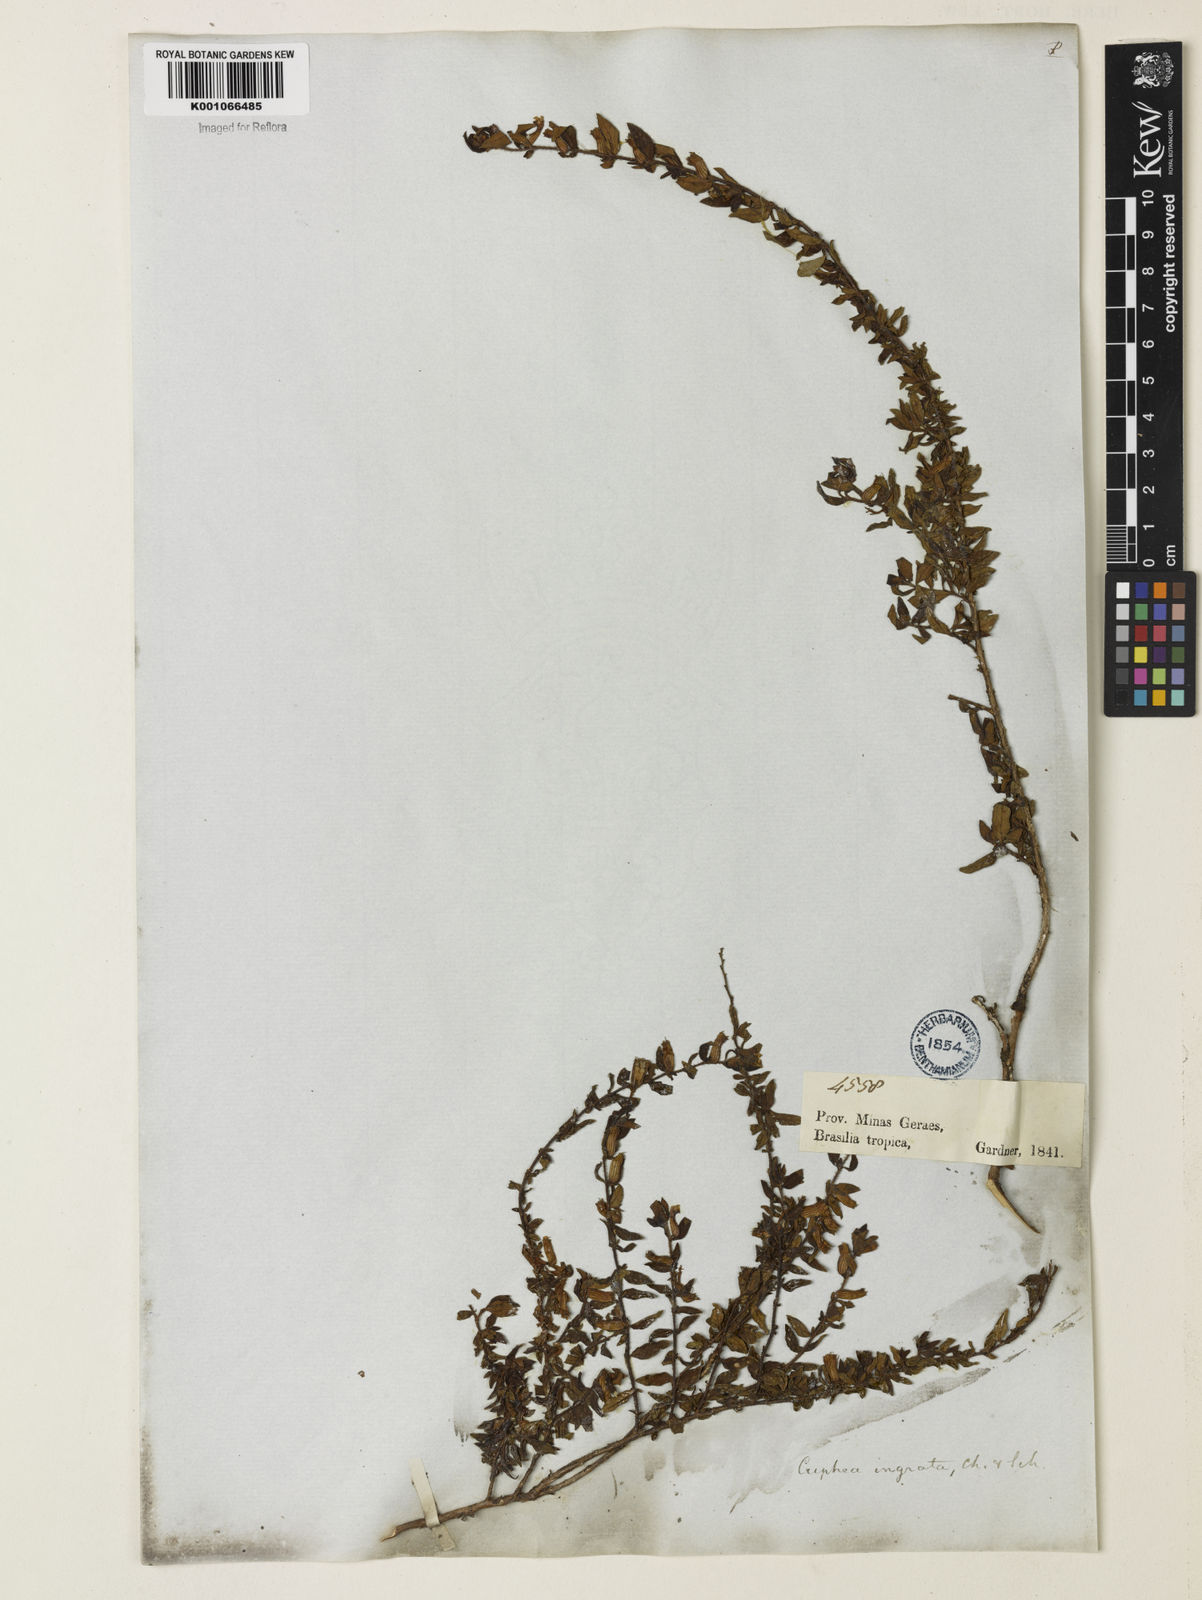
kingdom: Plantae
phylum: Tracheophyta
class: Magnoliopsida
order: Myrtales
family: Lythraceae
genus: Cuphea
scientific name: Cuphea ingrata
